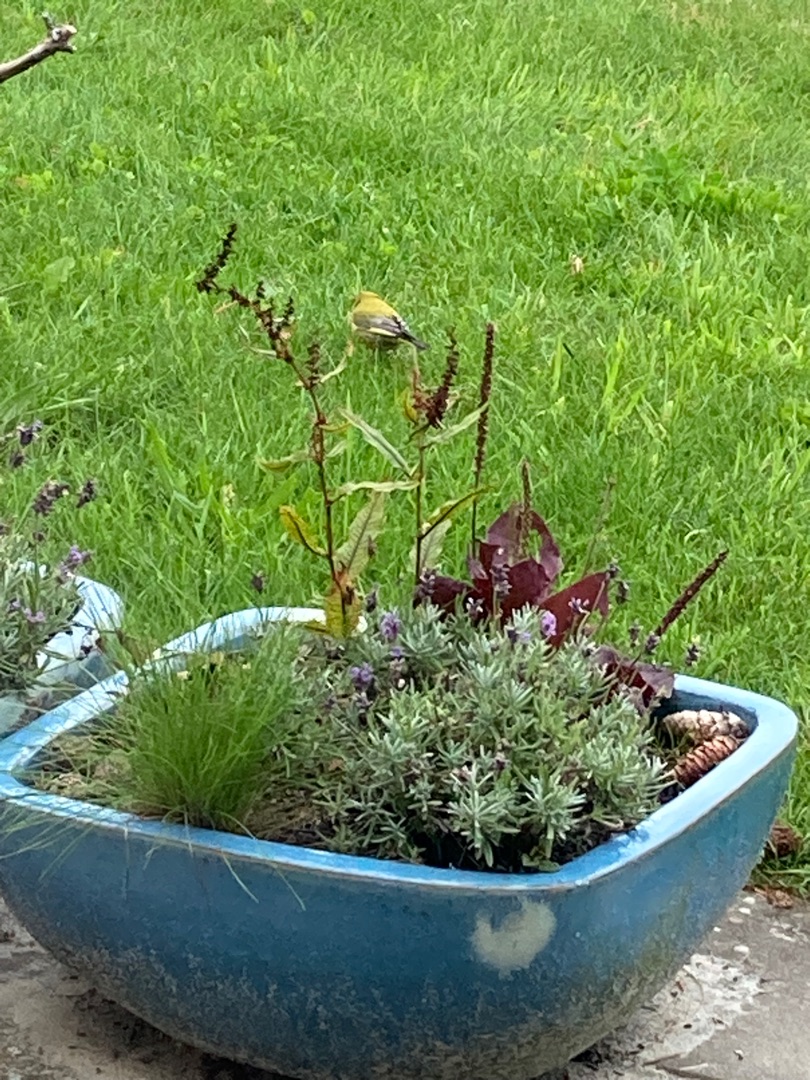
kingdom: Plantae
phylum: Tracheophyta
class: Liliopsida
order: Poales
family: Poaceae
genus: Chloris
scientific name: Chloris chloris
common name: Grønirisk
